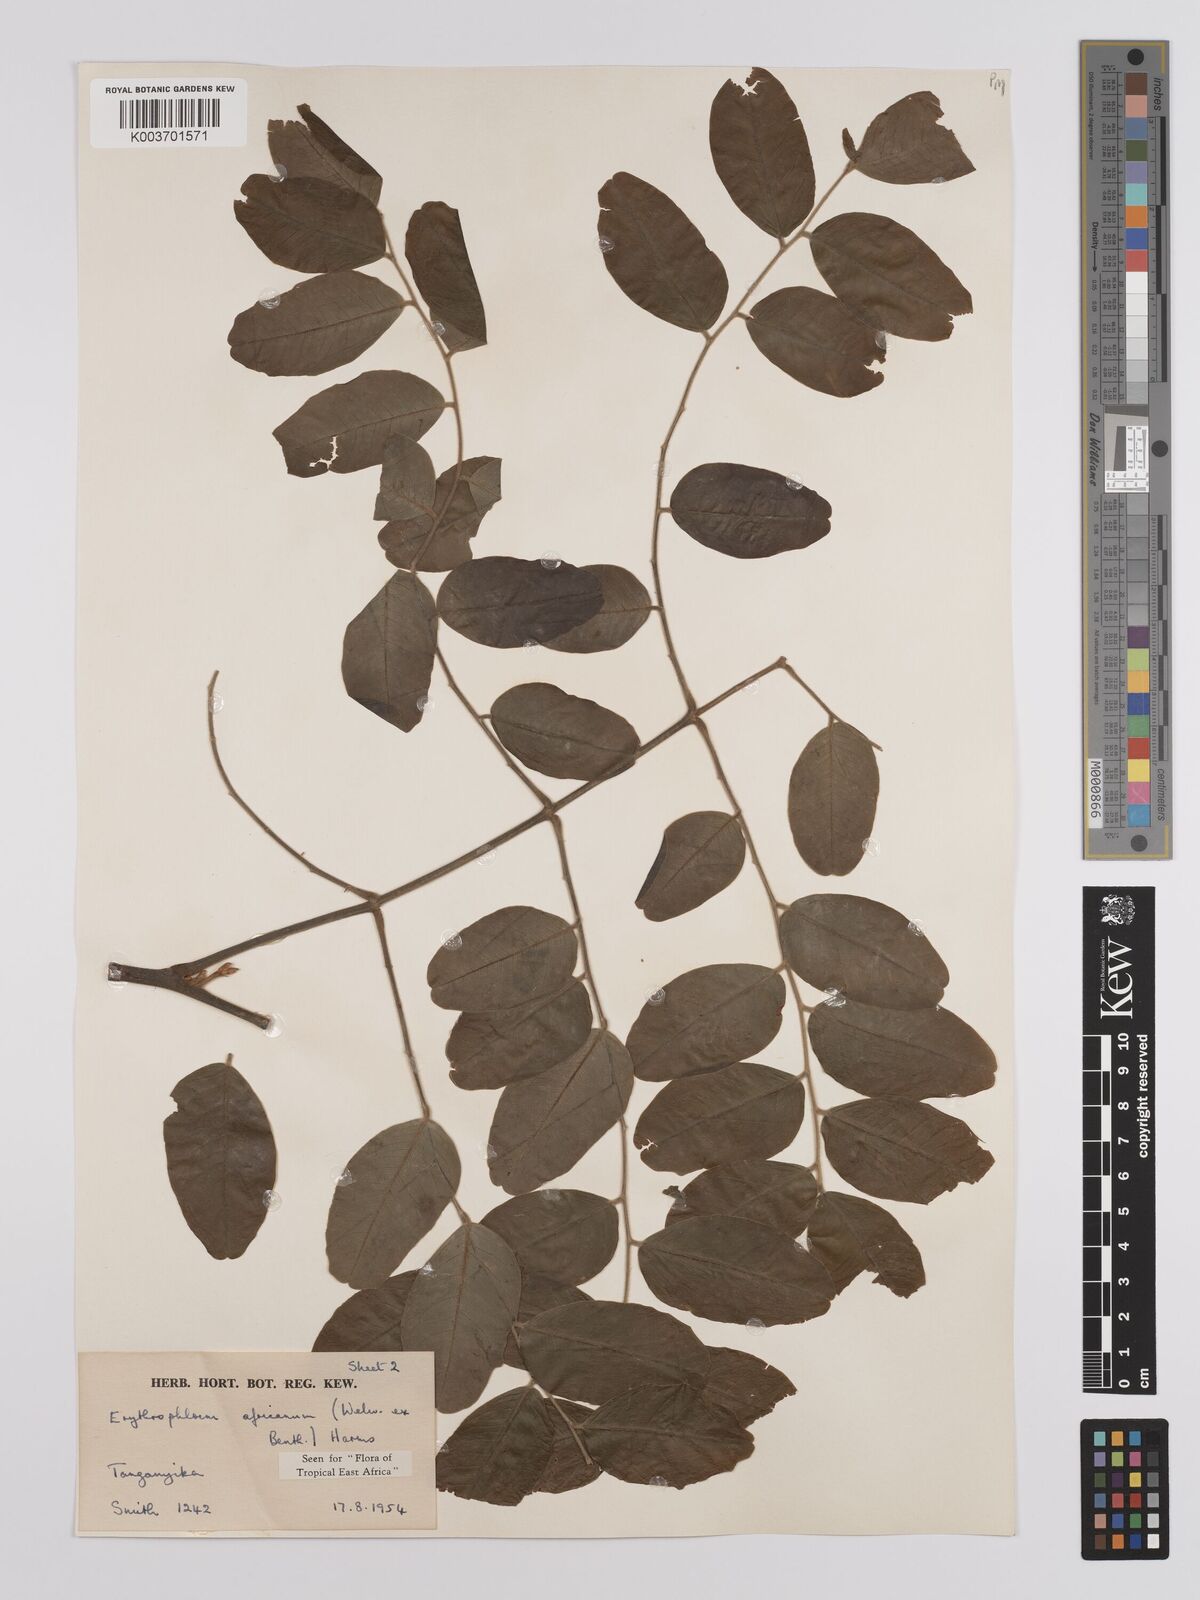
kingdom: Plantae
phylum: Tracheophyta
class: Magnoliopsida
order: Fabales
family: Fabaceae
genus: Erythrophleum
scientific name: Erythrophleum africanum
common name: African blackwood
